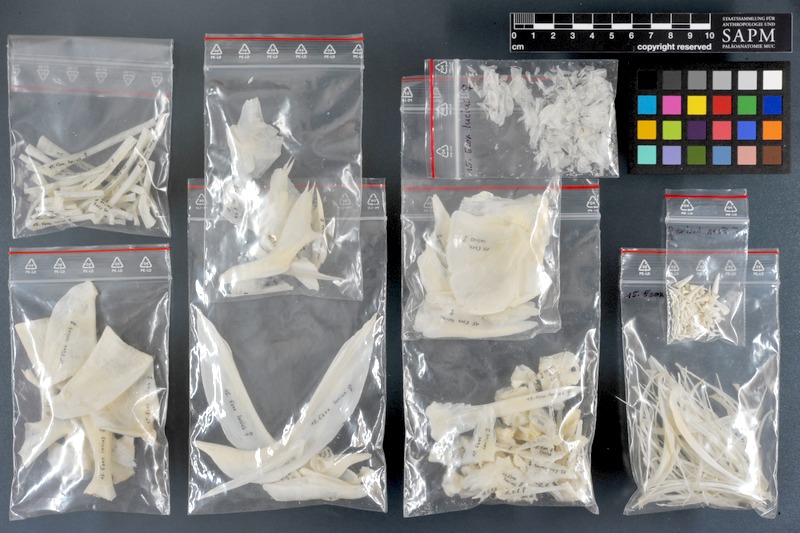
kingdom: Animalia
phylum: Chordata
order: Esociformes
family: Esocidae
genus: Esox
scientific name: Esox lucius
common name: Northern pike
